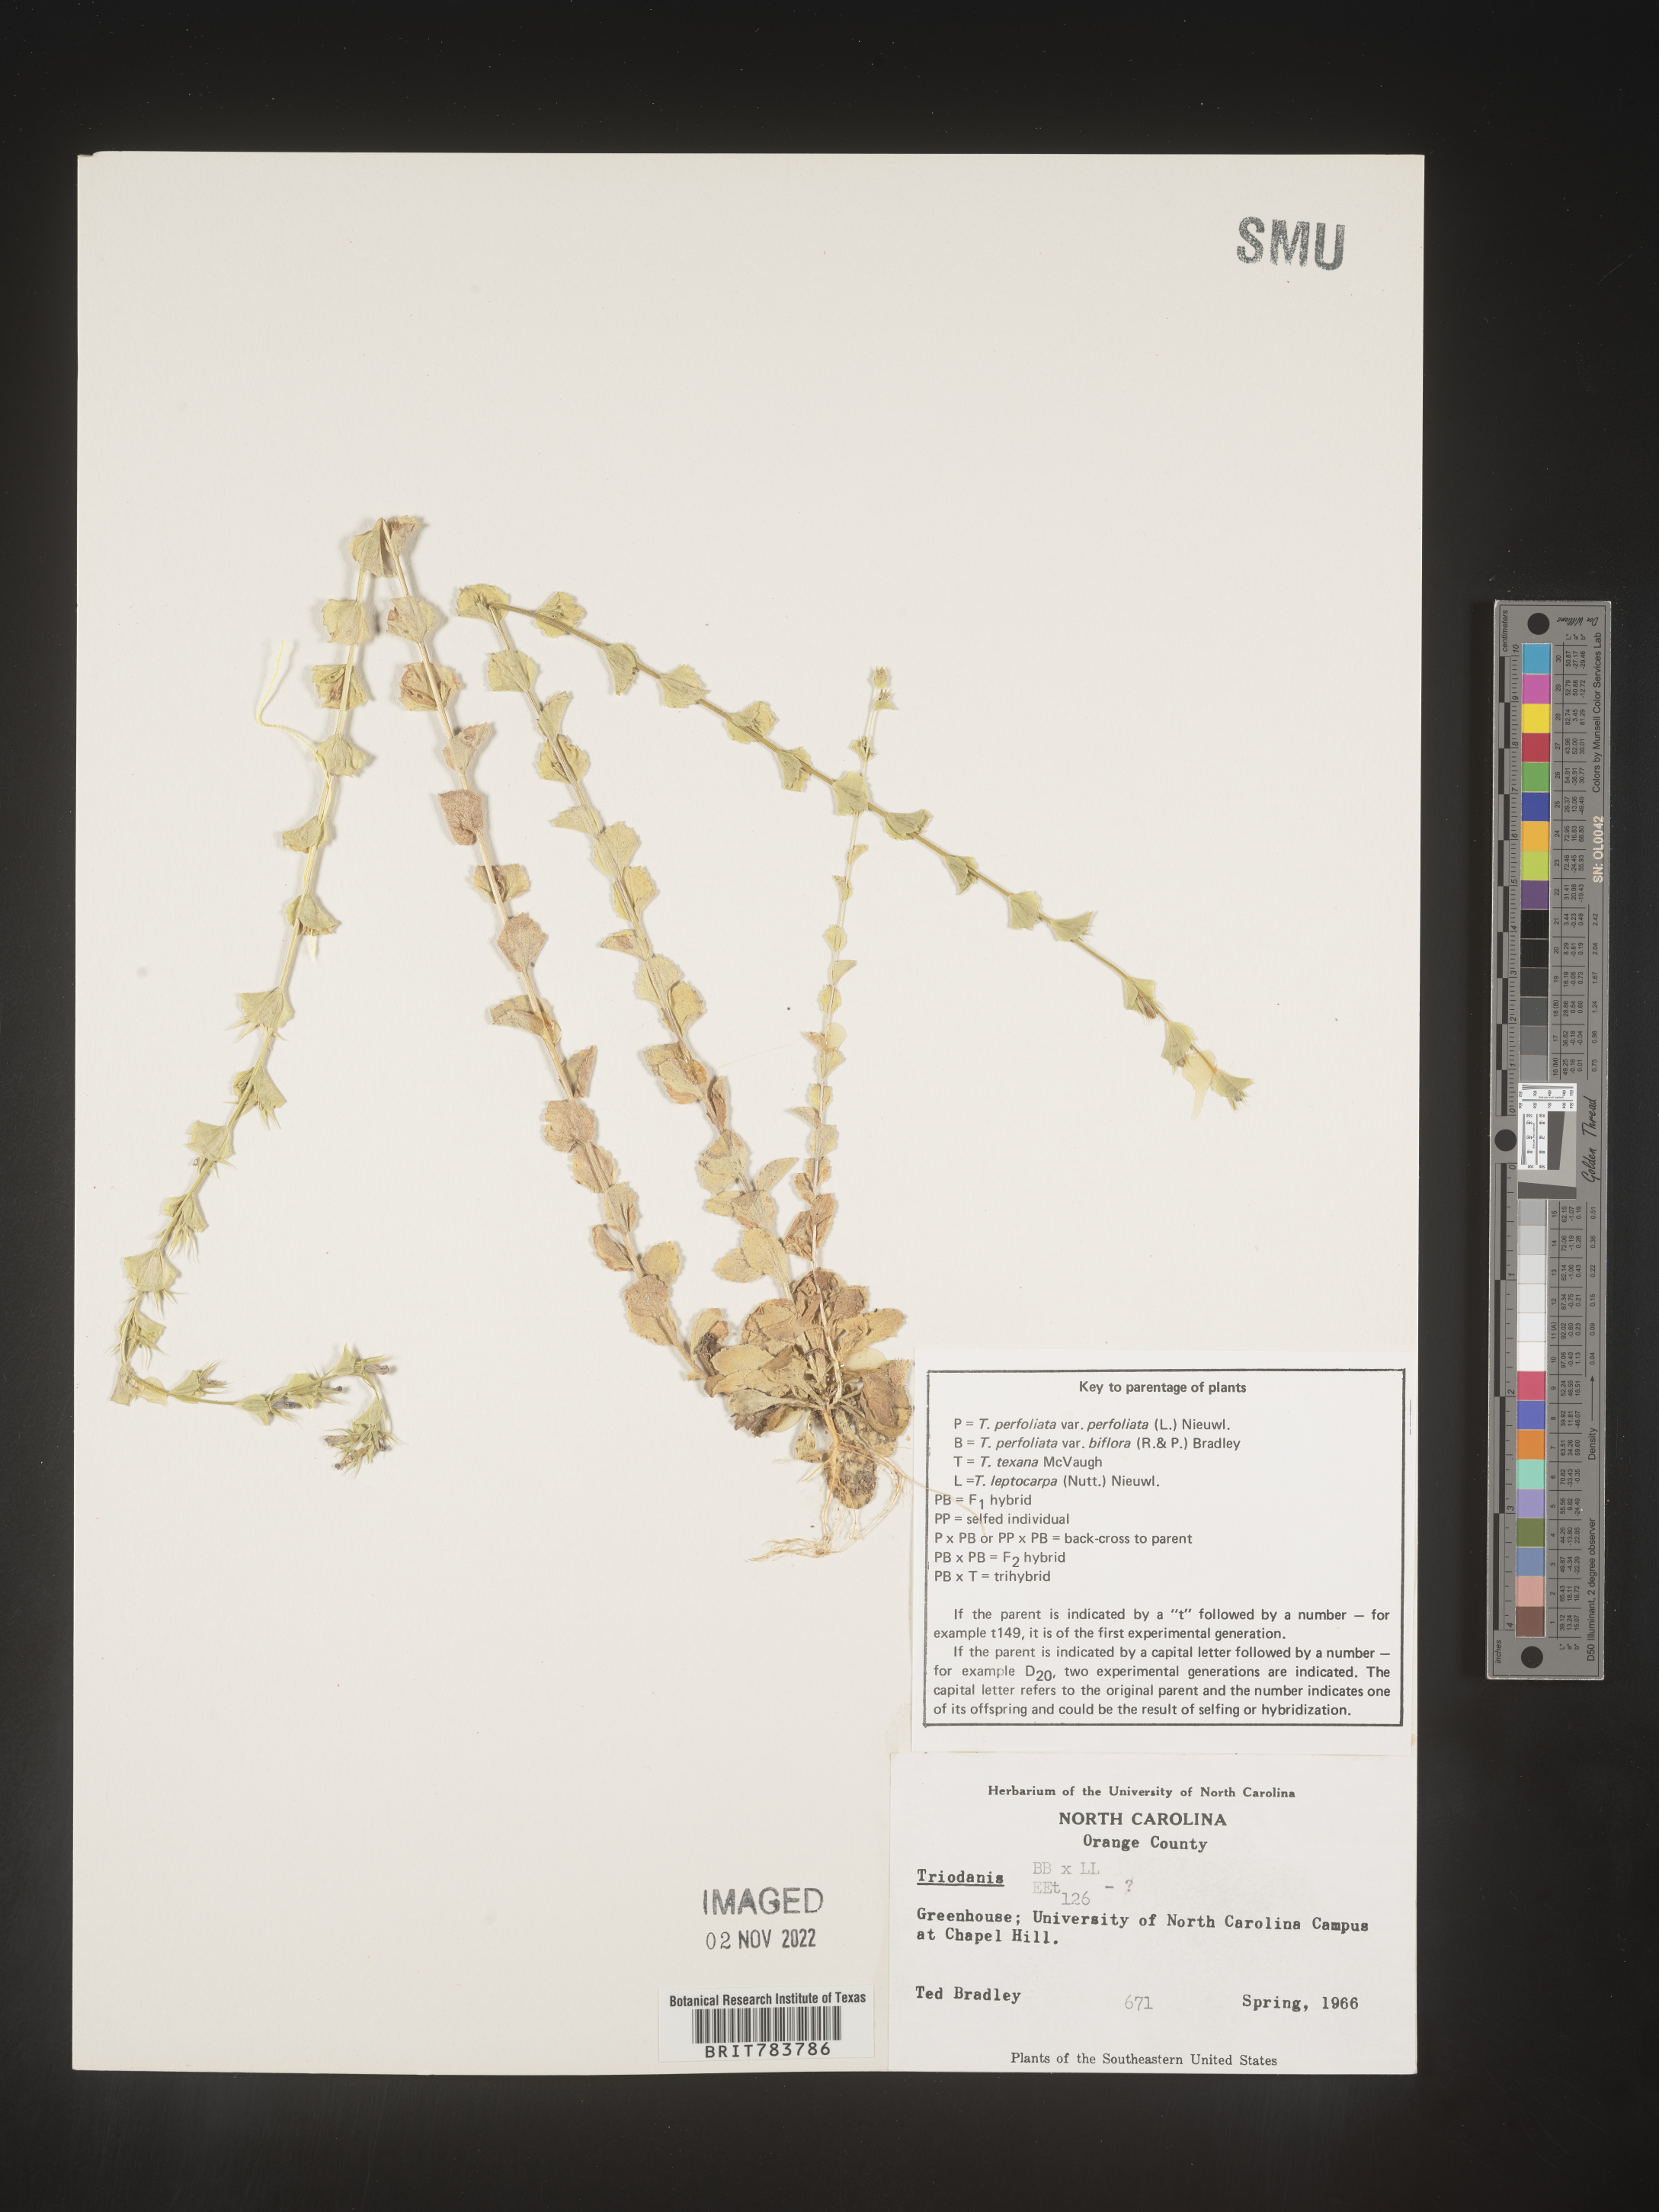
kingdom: Plantae
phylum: Tracheophyta
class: Magnoliopsida
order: Asterales
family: Campanulaceae
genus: Triodanis
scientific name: Triodanis
